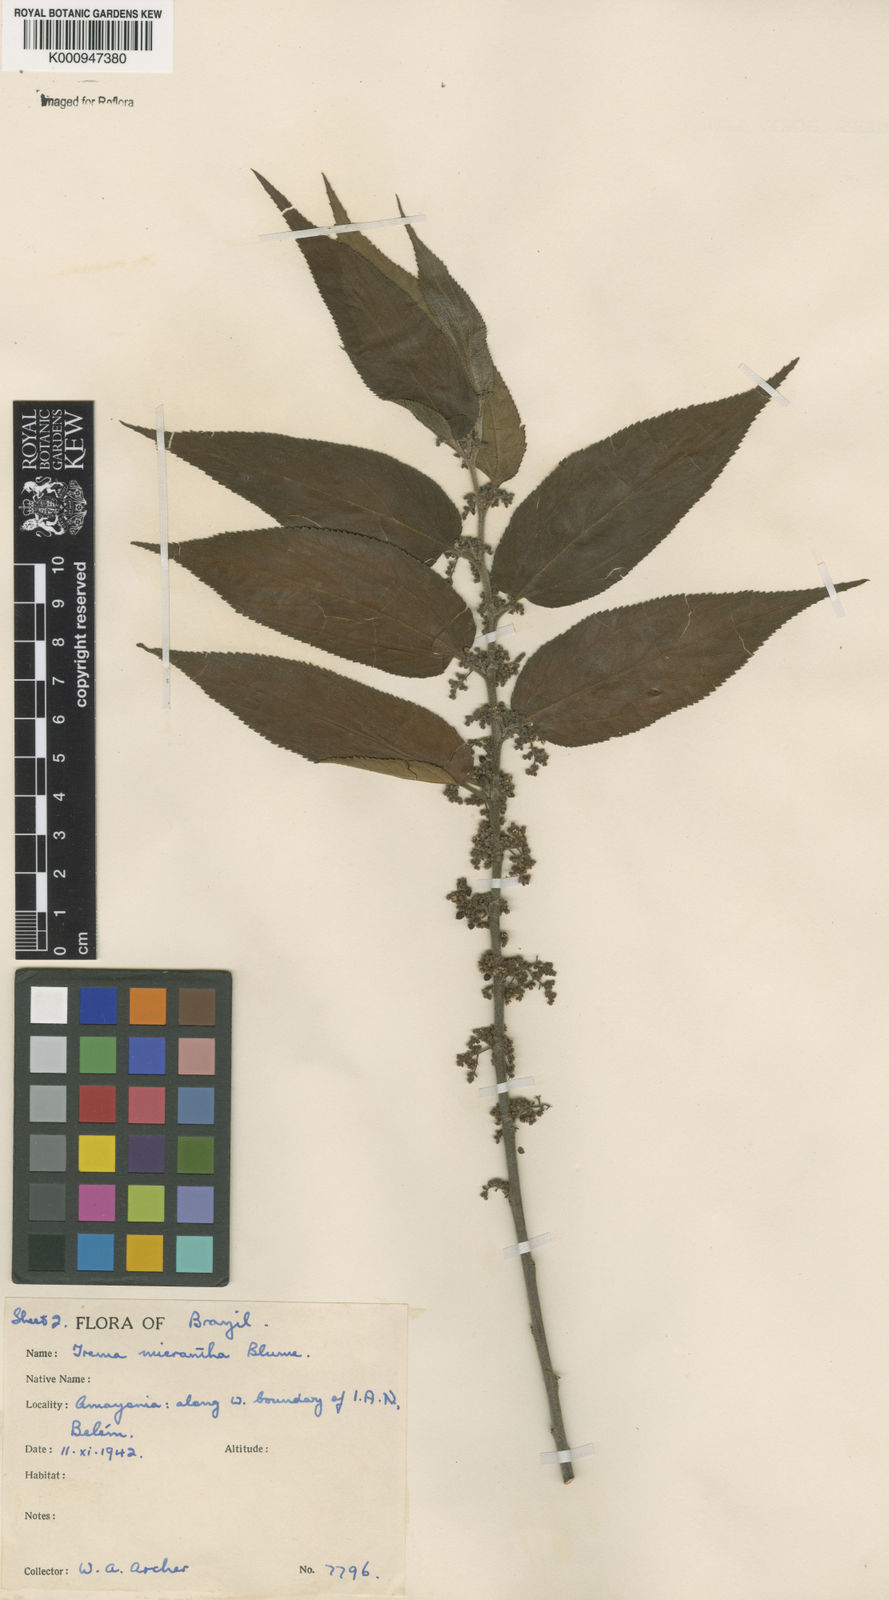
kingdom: Plantae
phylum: Tracheophyta
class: Magnoliopsida
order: Rosales
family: Cannabaceae
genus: Trema
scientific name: Trema micranthum
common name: Jamaican nettletree
